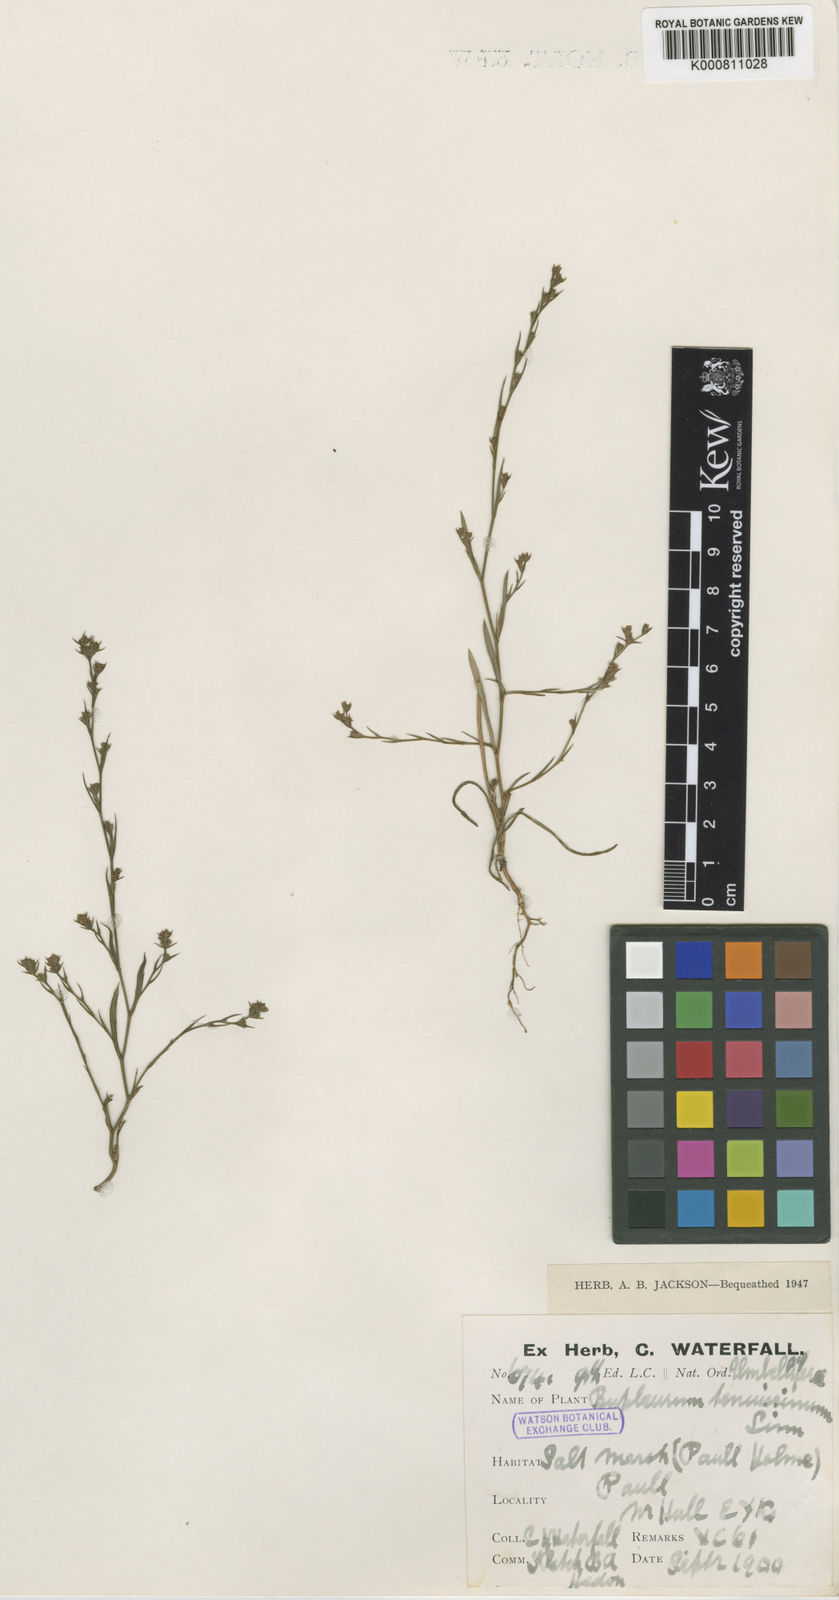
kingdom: Plantae
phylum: Tracheophyta
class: Magnoliopsida
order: Apiales
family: Apiaceae
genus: Bupleurum
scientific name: Bupleurum tenuissimum
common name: Slender hare's-ear
